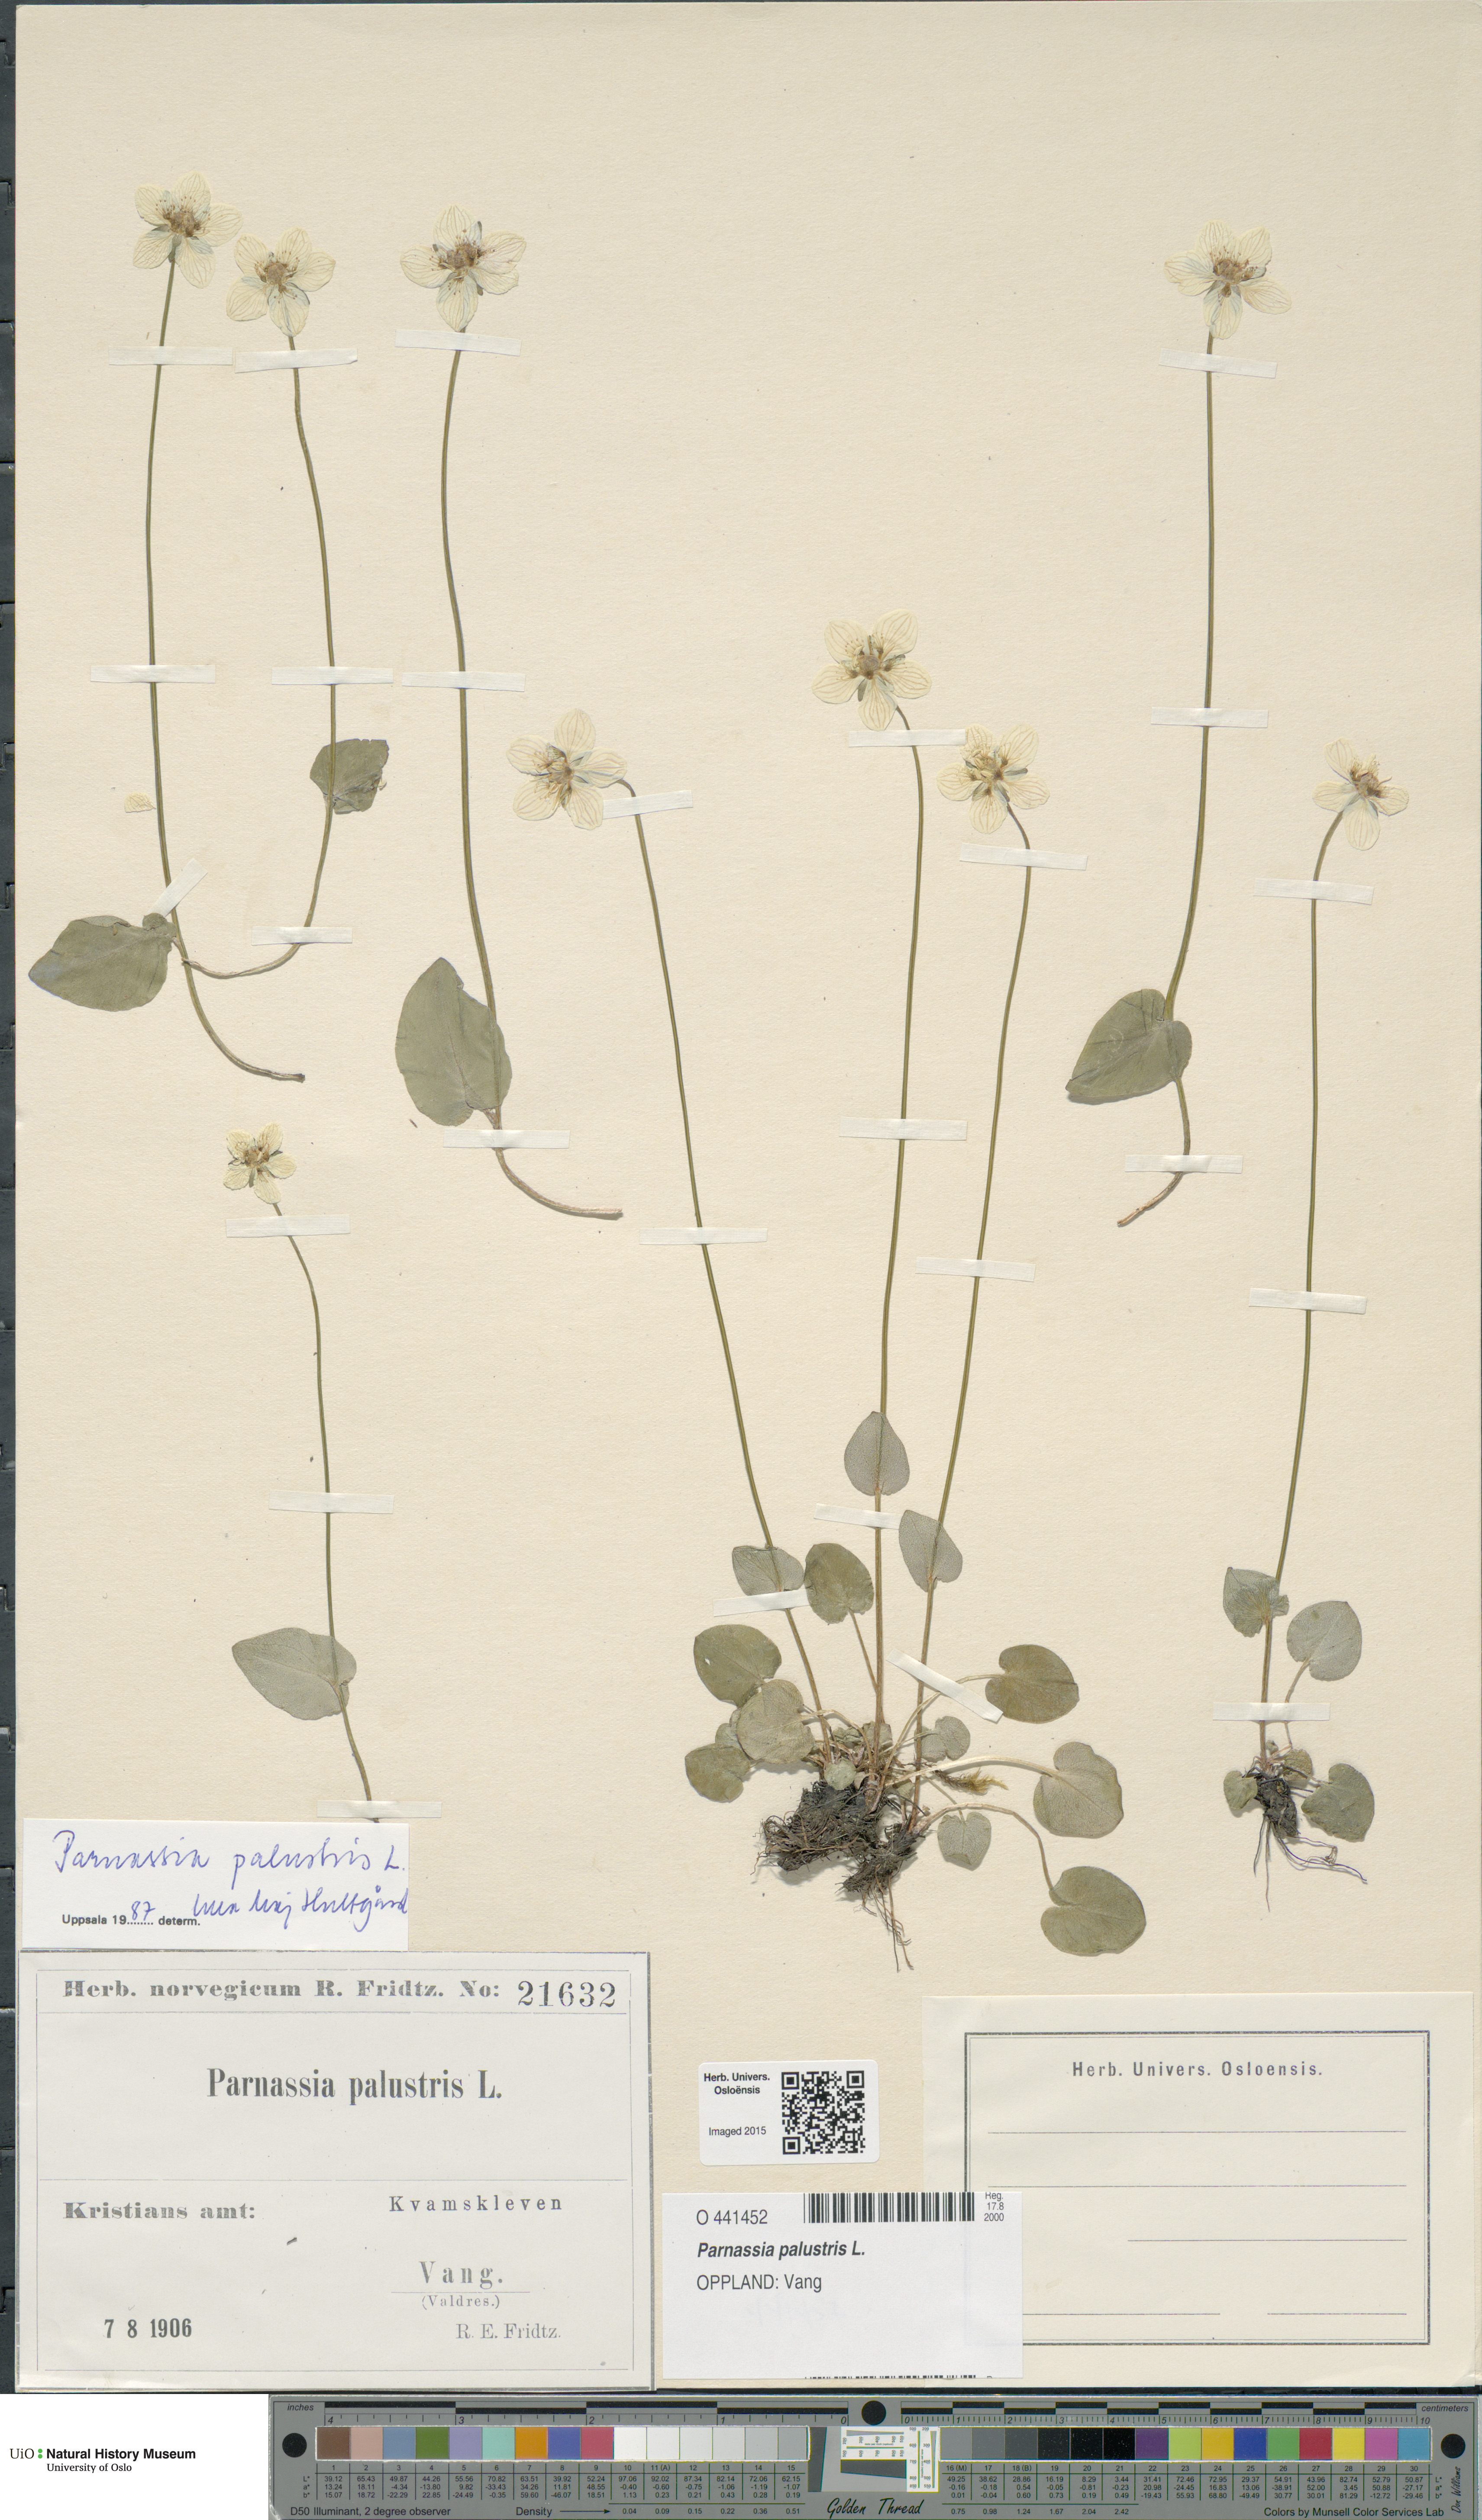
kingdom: Plantae
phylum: Tracheophyta
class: Magnoliopsida
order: Celastrales
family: Parnassiaceae
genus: Parnassia
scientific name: Parnassia palustris
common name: Grass-of-parnassus
